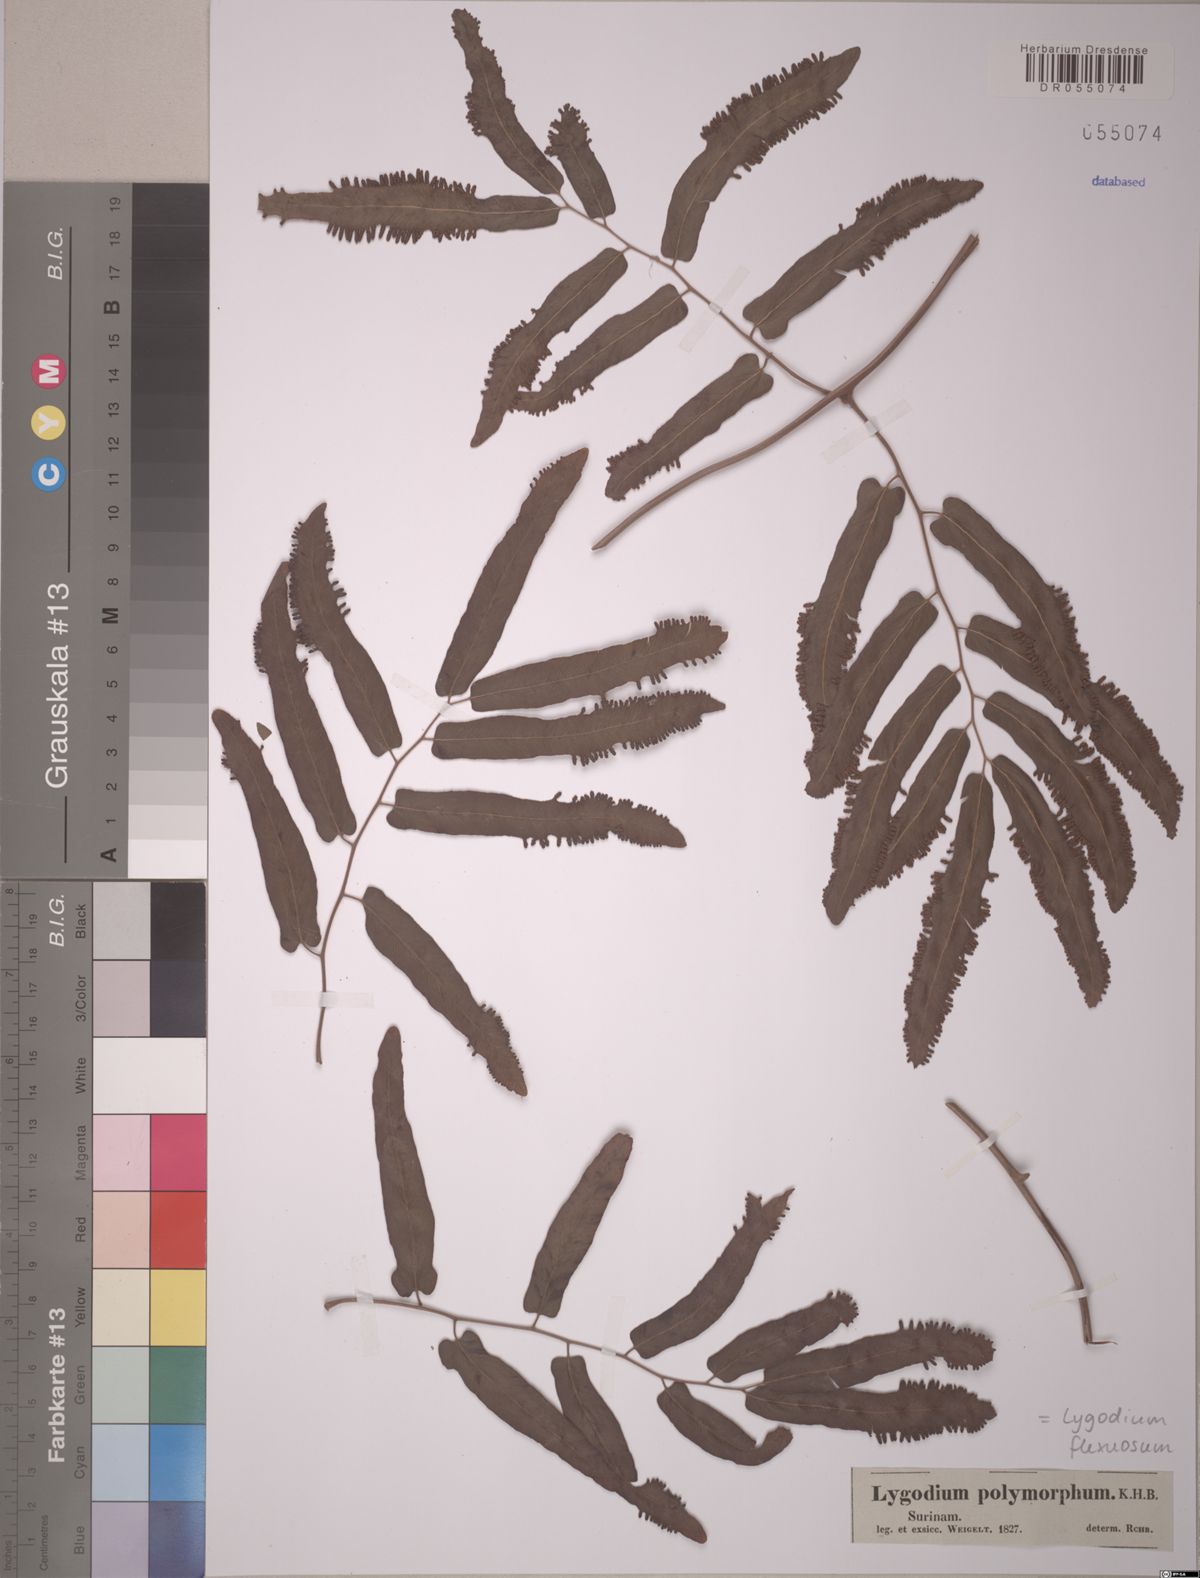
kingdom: Plantae
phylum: Tracheophyta
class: Polypodiopsida
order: Schizaeales
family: Lygodiaceae
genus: Lygodium
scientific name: Lygodium flexuosum
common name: Maidenhair creeper
